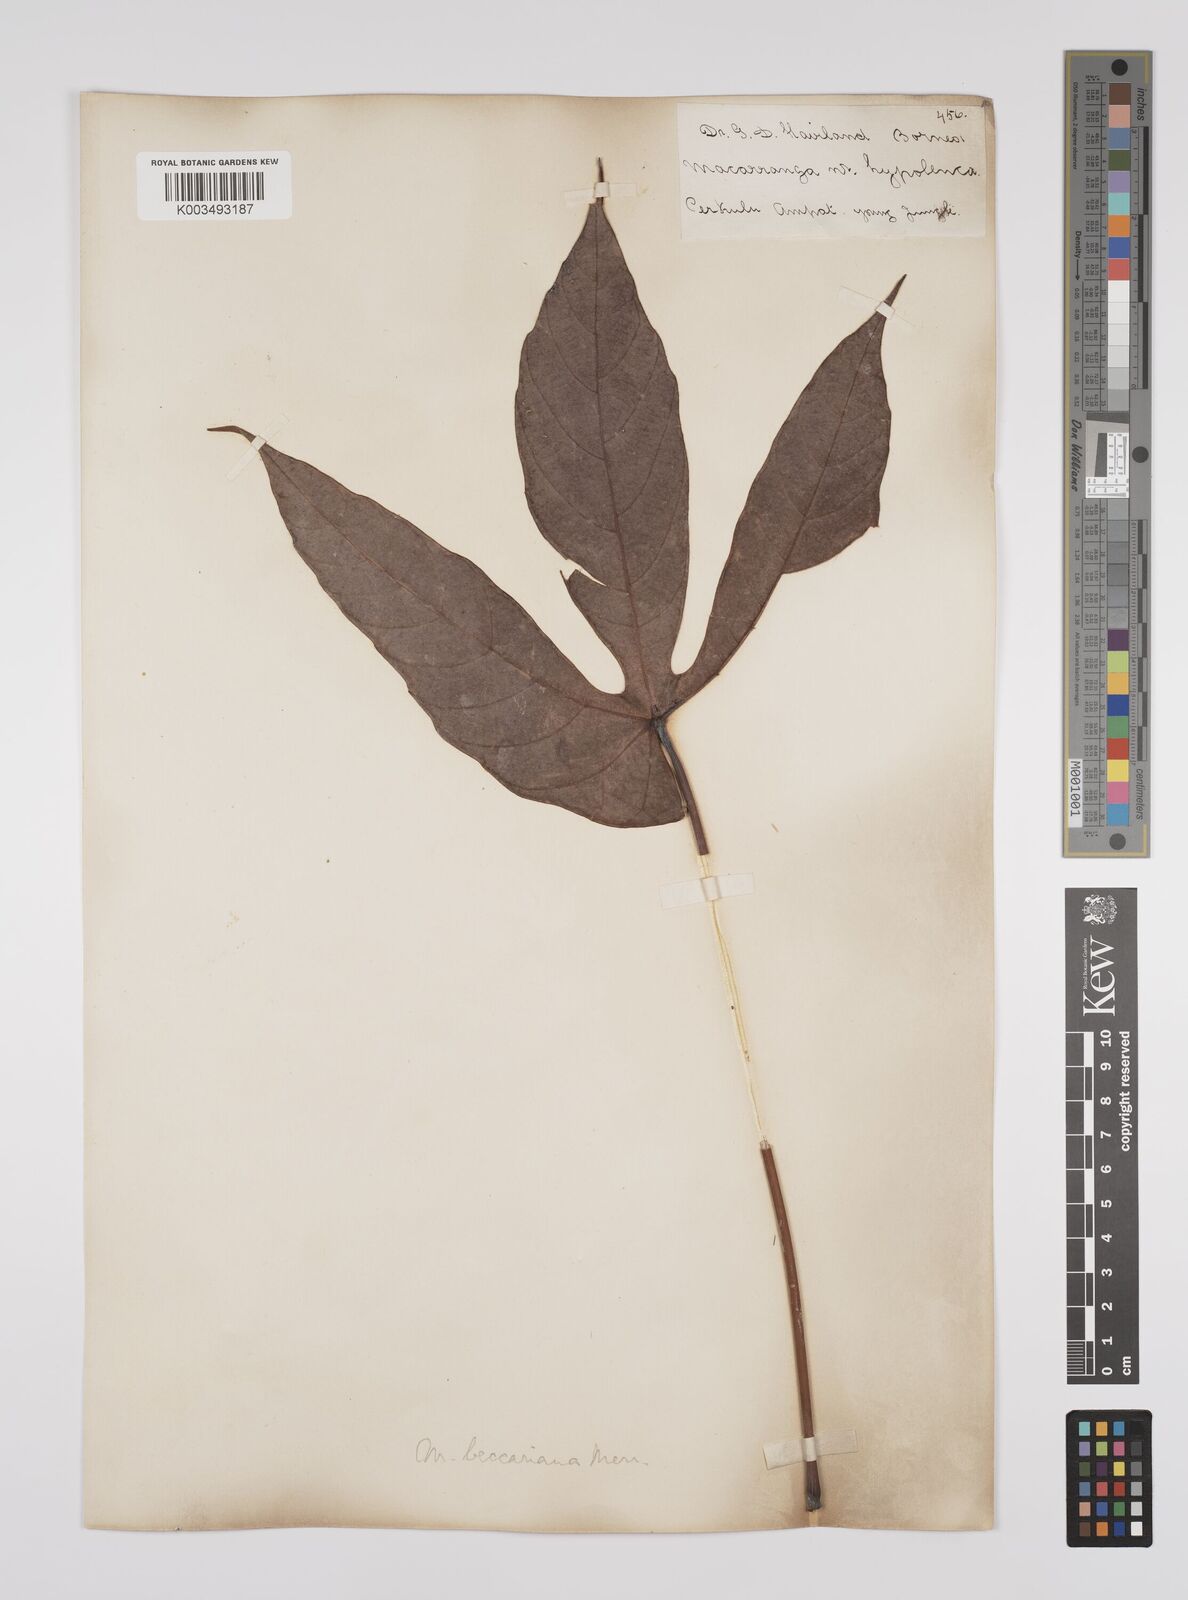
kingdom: Plantae
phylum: Tracheophyta
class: Magnoliopsida
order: Malpighiales
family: Euphorbiaceae
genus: Macaranga
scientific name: Macaranga beccariana
